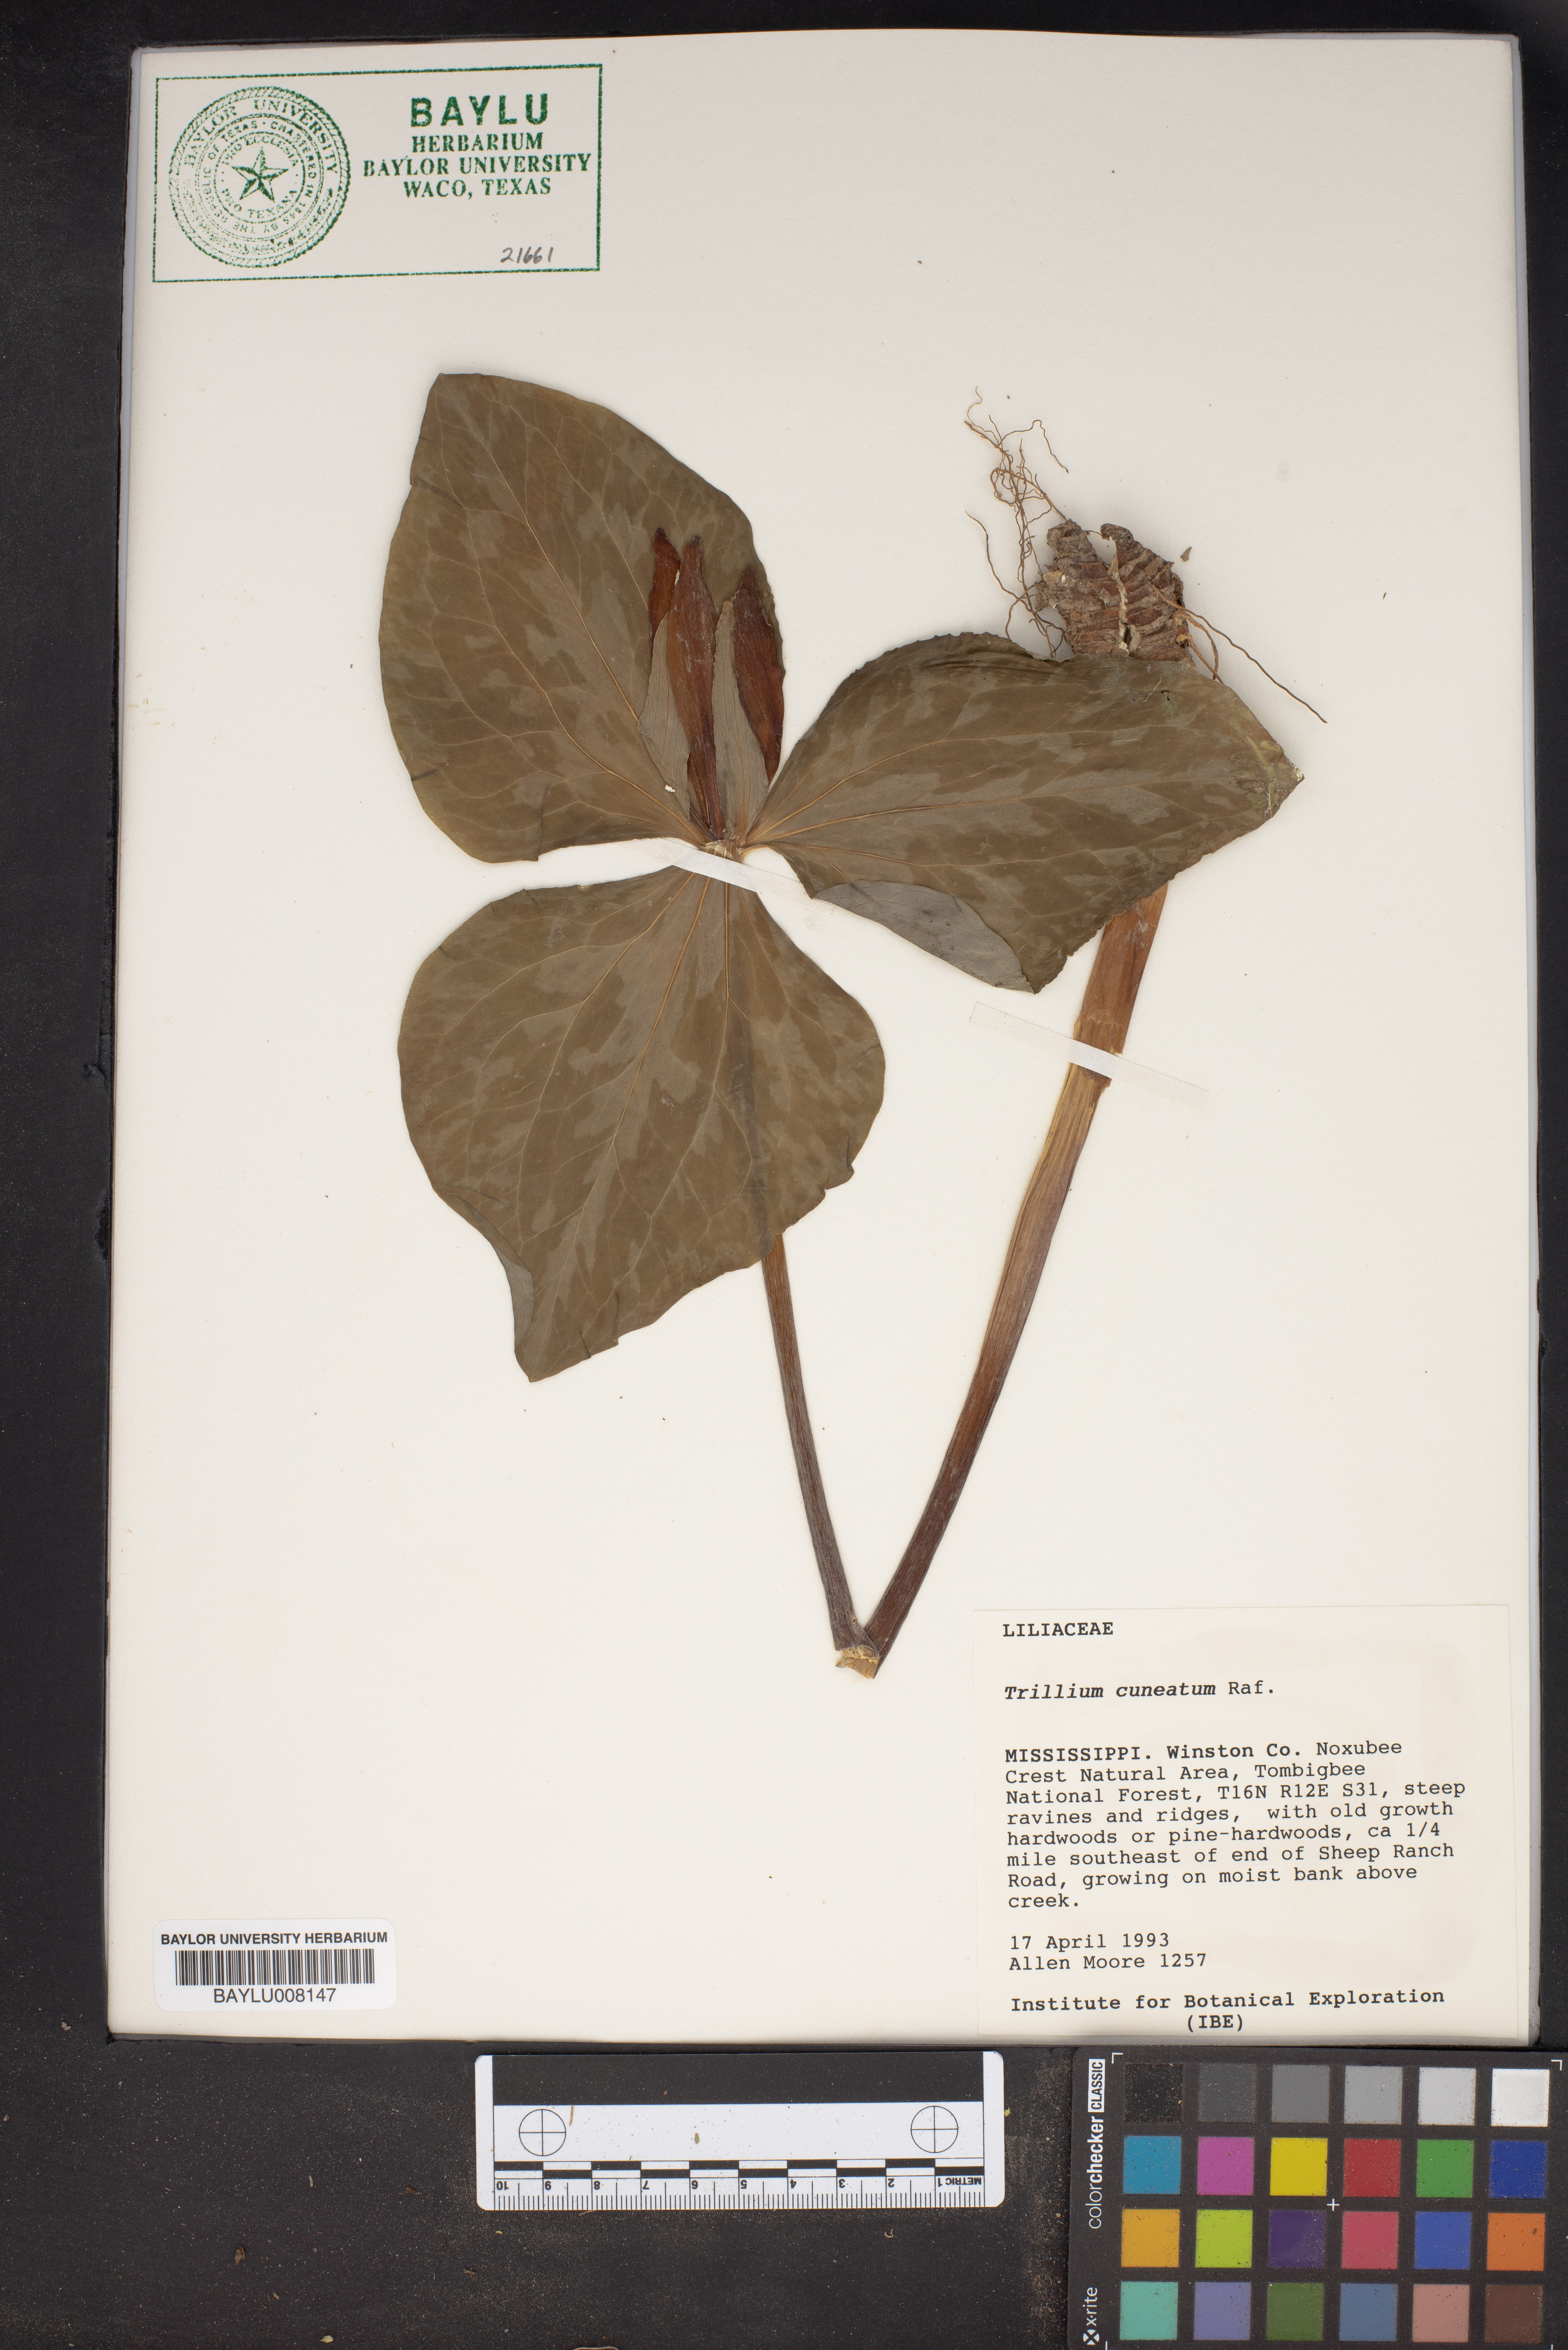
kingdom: Plantae
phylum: Tracheophyta
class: Liliopsida
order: Liliales
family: Melanthiaceae
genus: Trillium
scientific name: Trillium cuneatum
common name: Cuneate trillium
